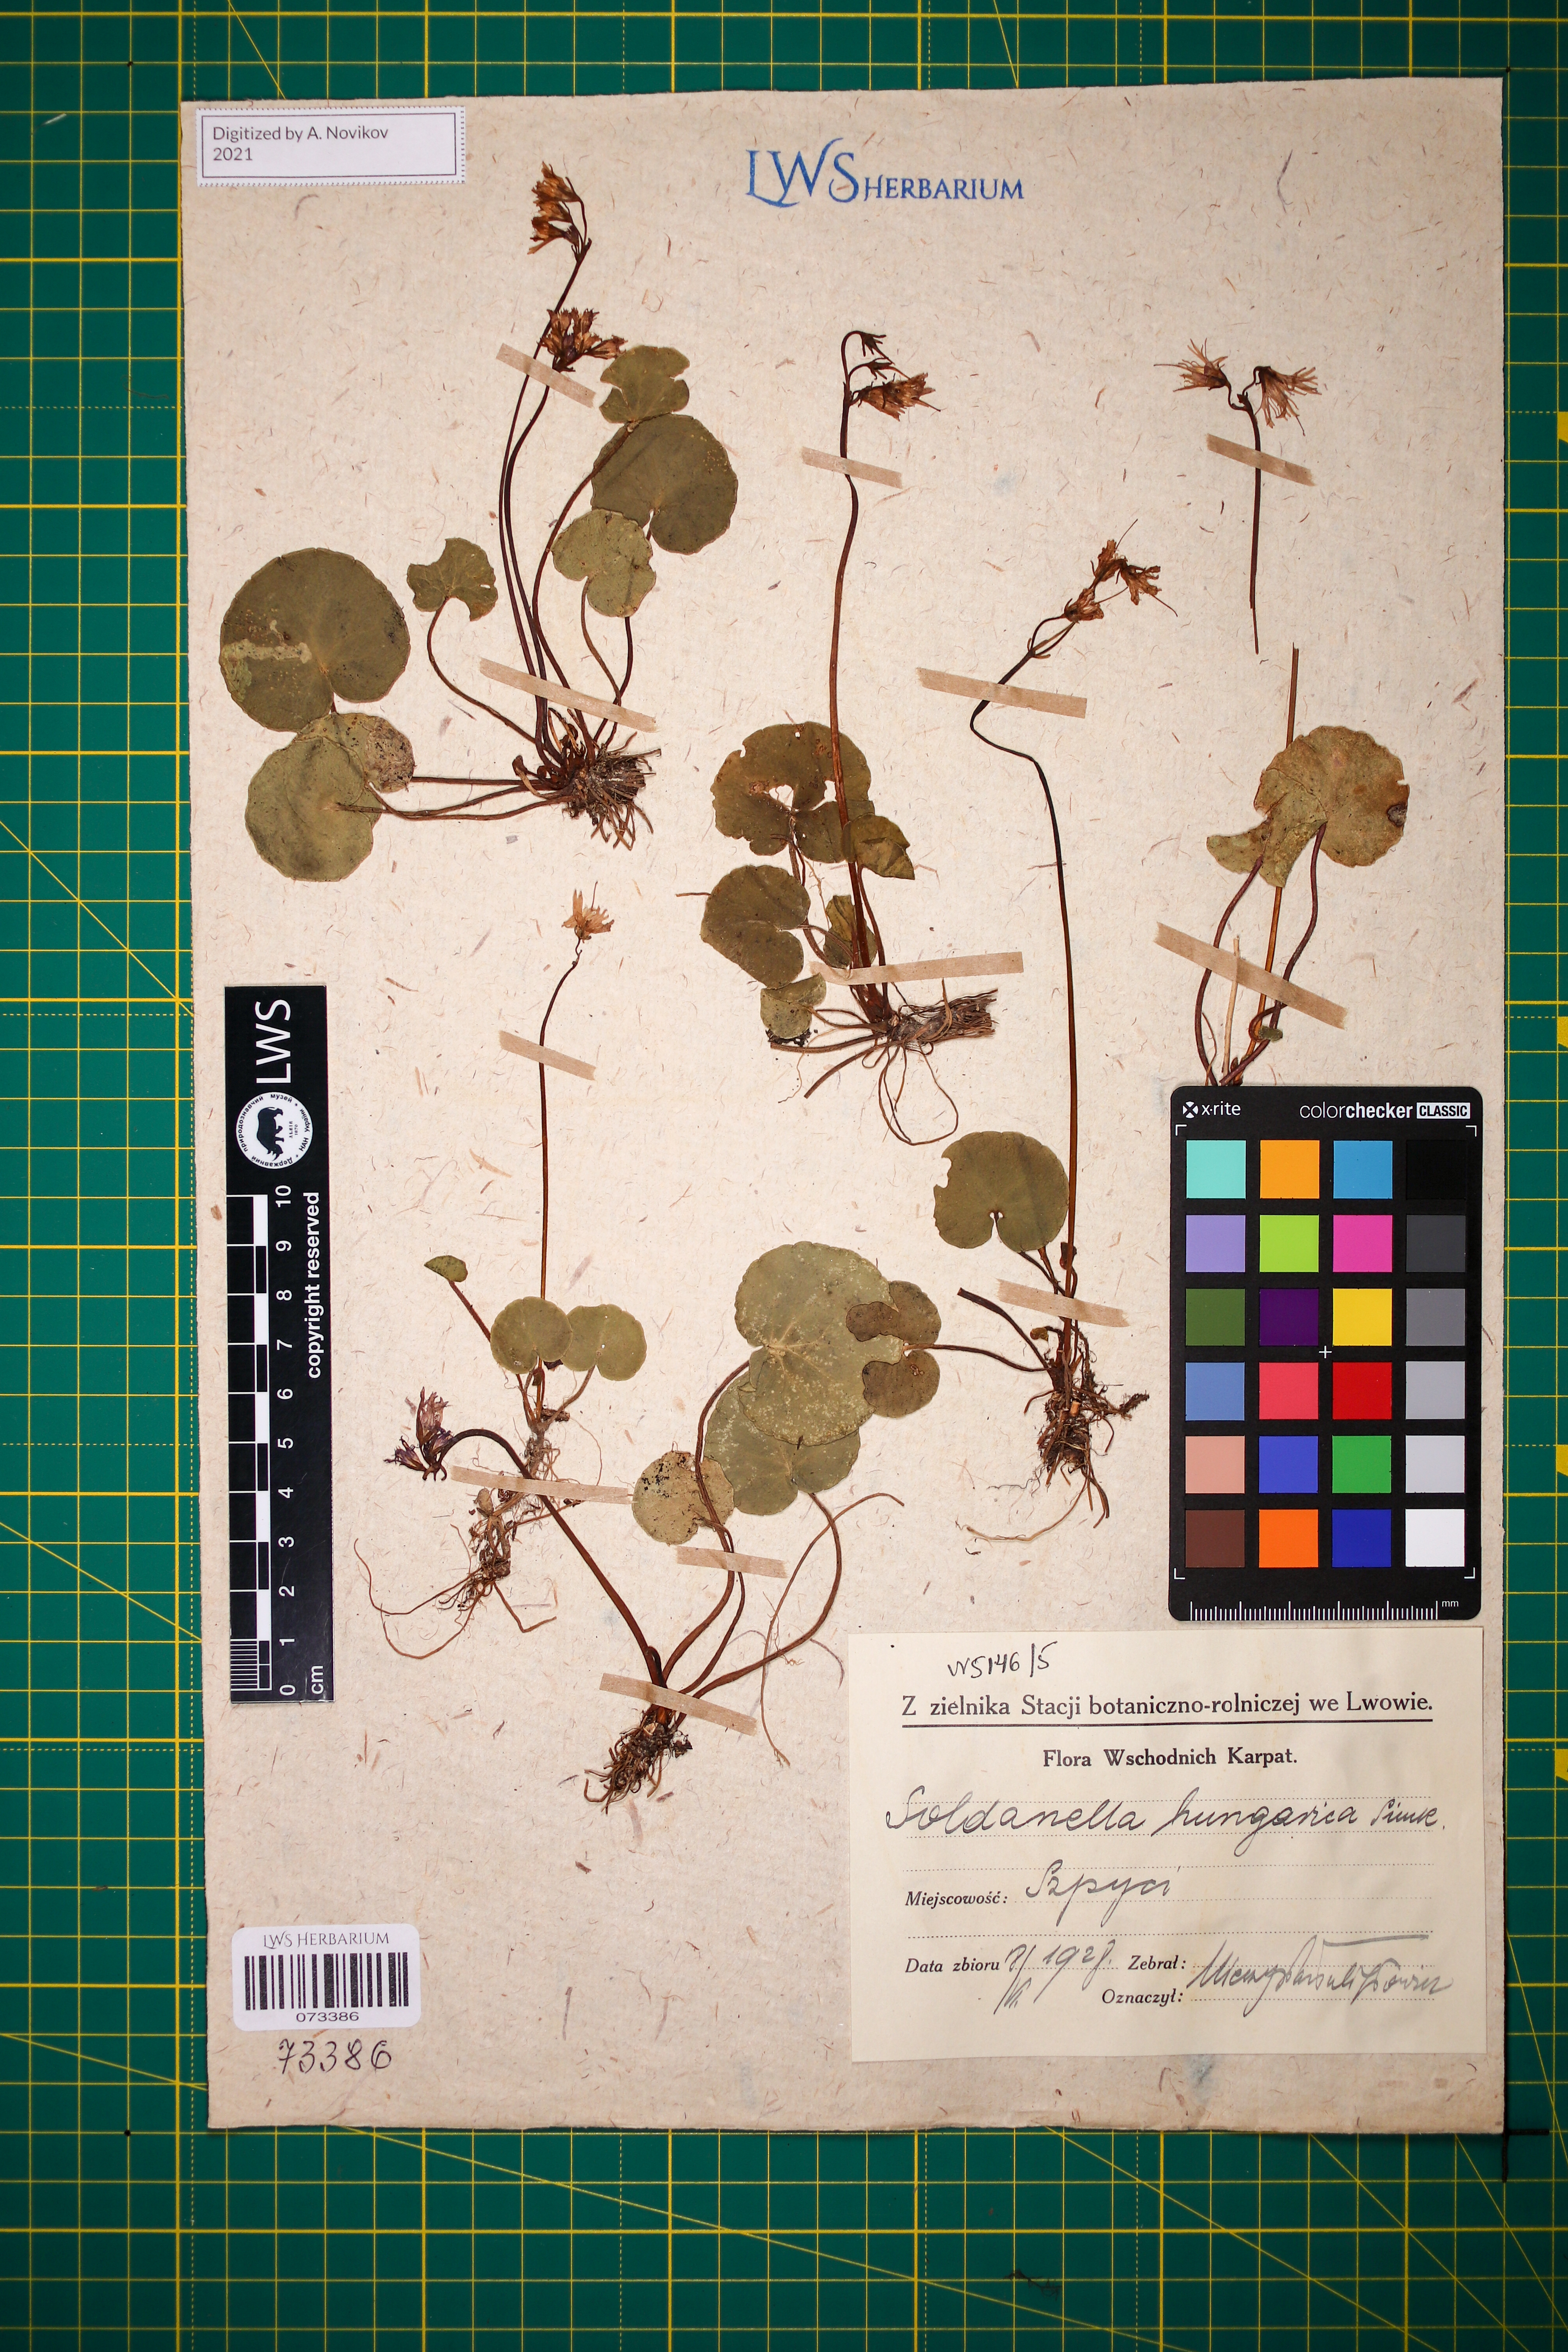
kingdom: Plantae
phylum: Tracheophyta
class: Magnoliopsida
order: Ericales
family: Primulaceae
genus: Soldanella
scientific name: Soldanella hungarica
